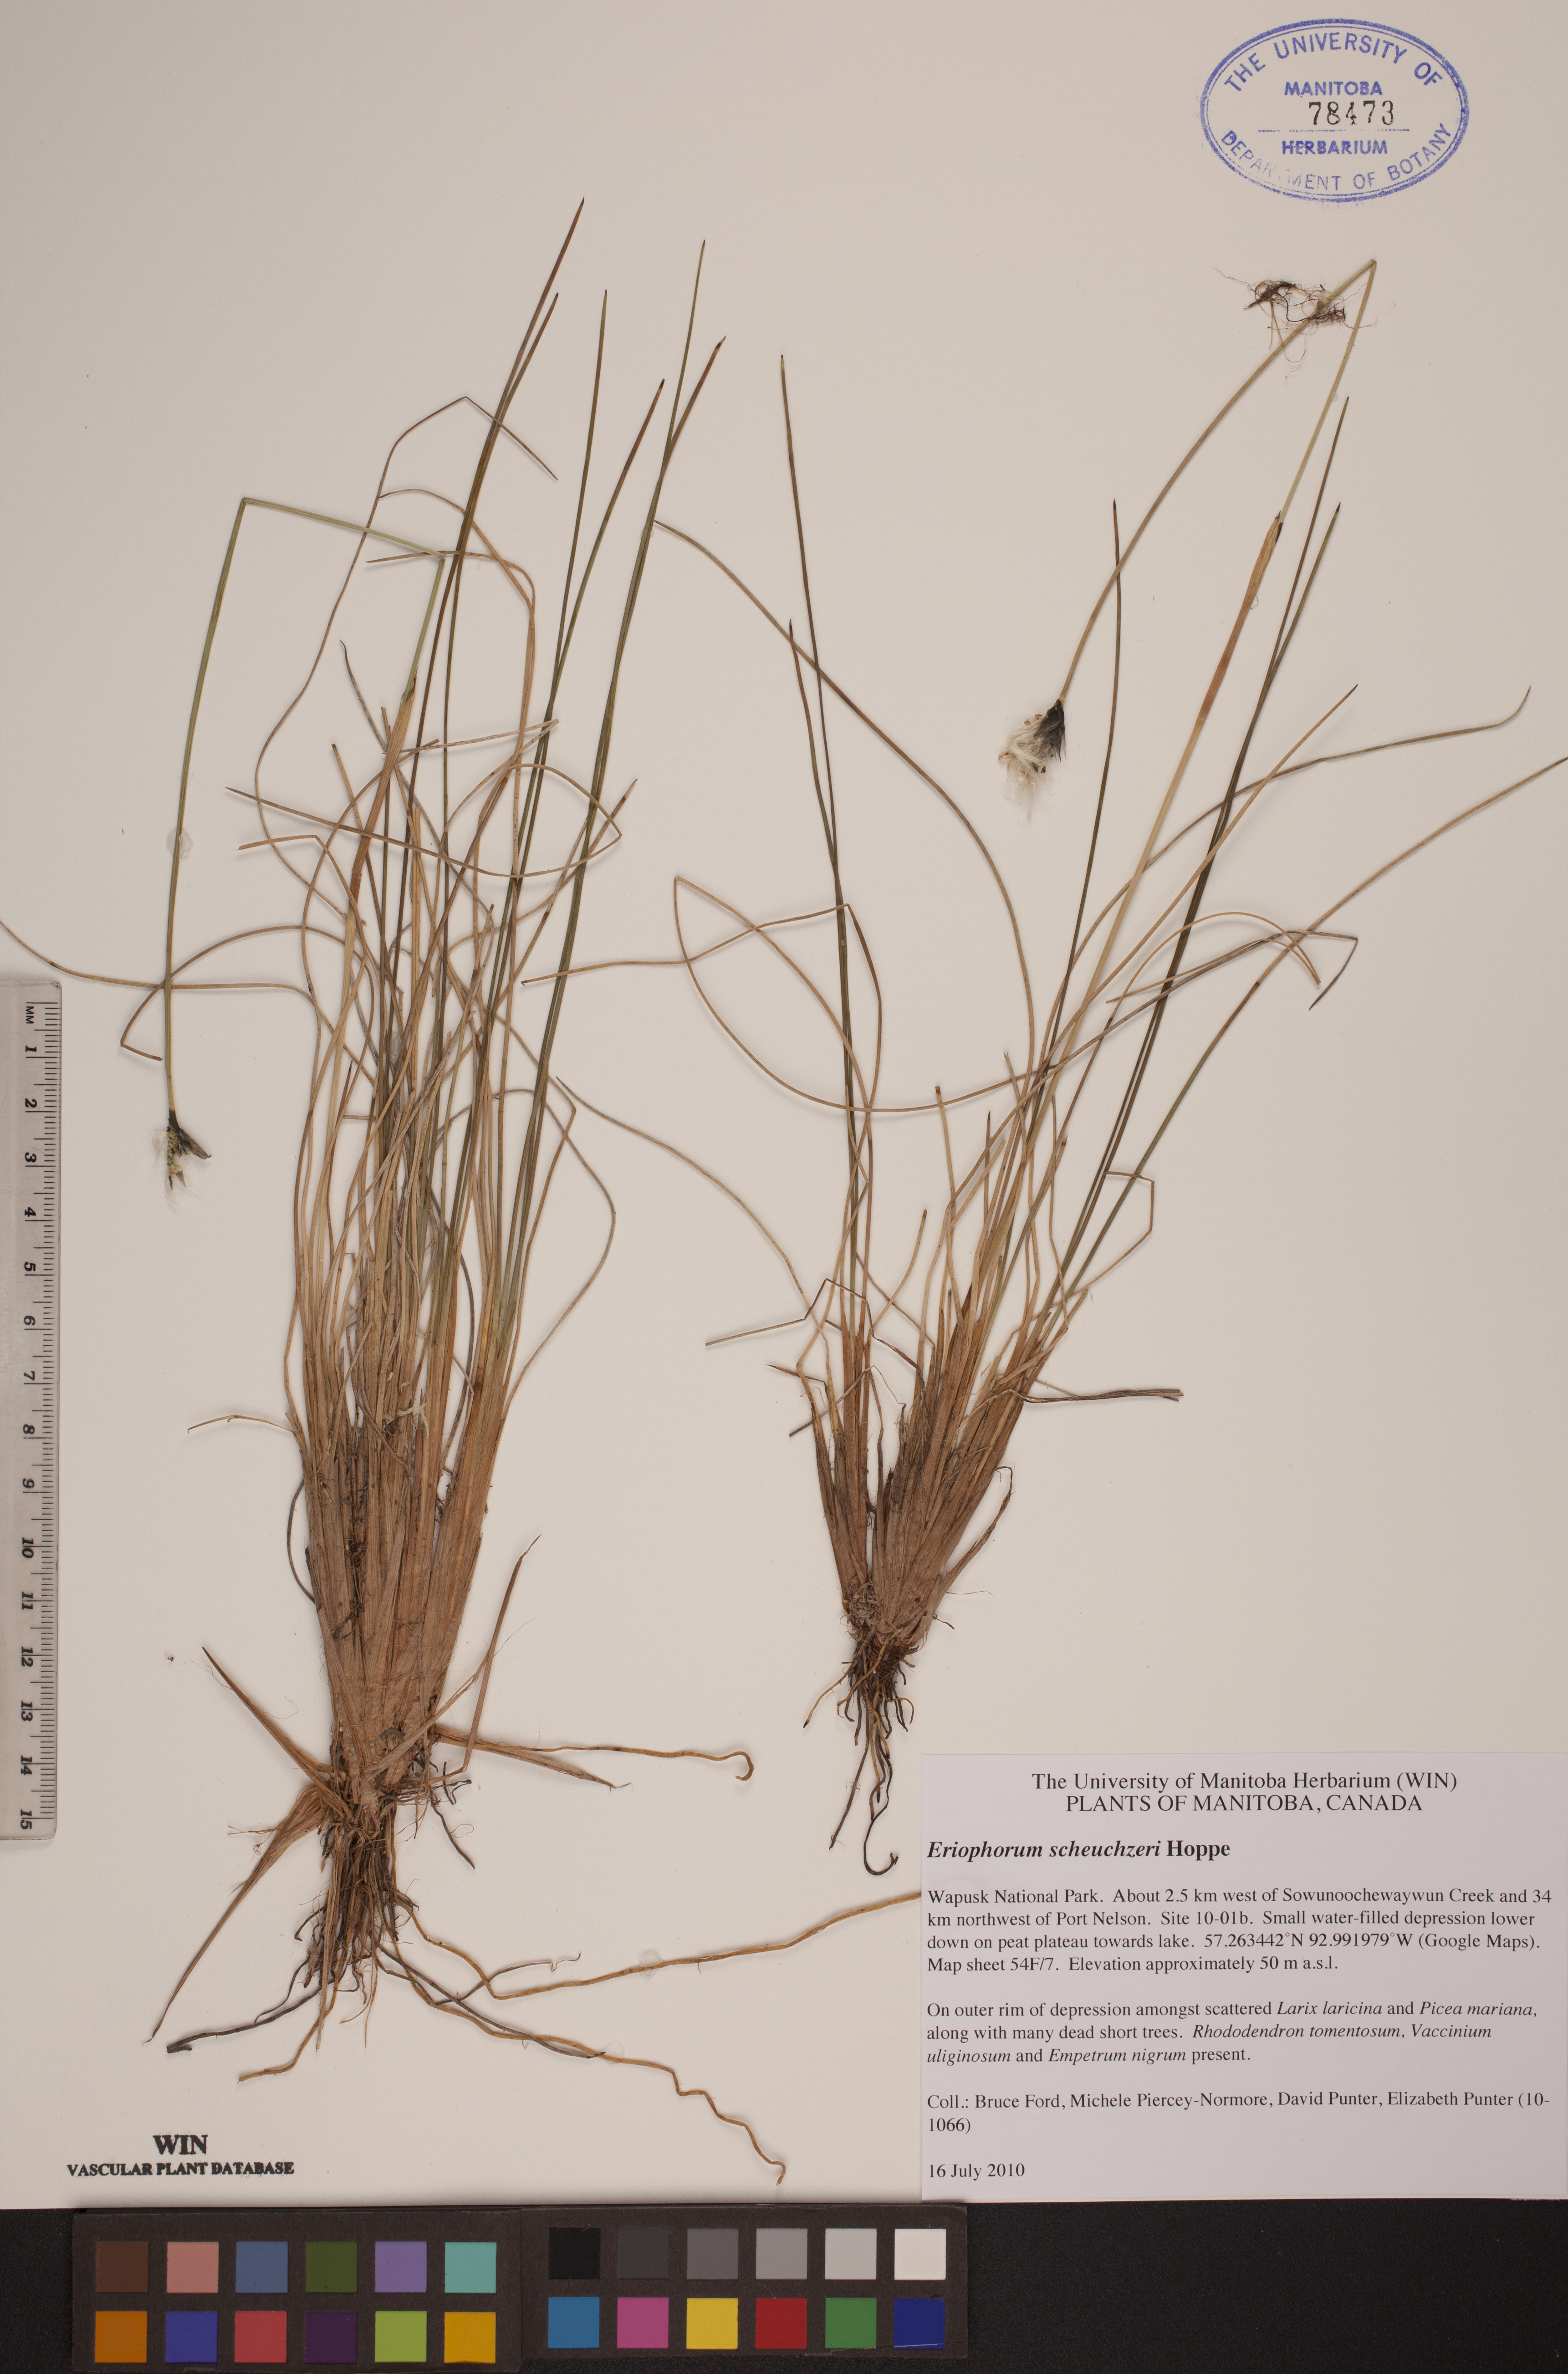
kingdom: Plantae
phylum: Tracheophyta
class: Liliopsida
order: Poales
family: Cyperaceae
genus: Eriophorum
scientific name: Eriophorum scheuchzeri
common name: Scheuchzer's cottongrass
